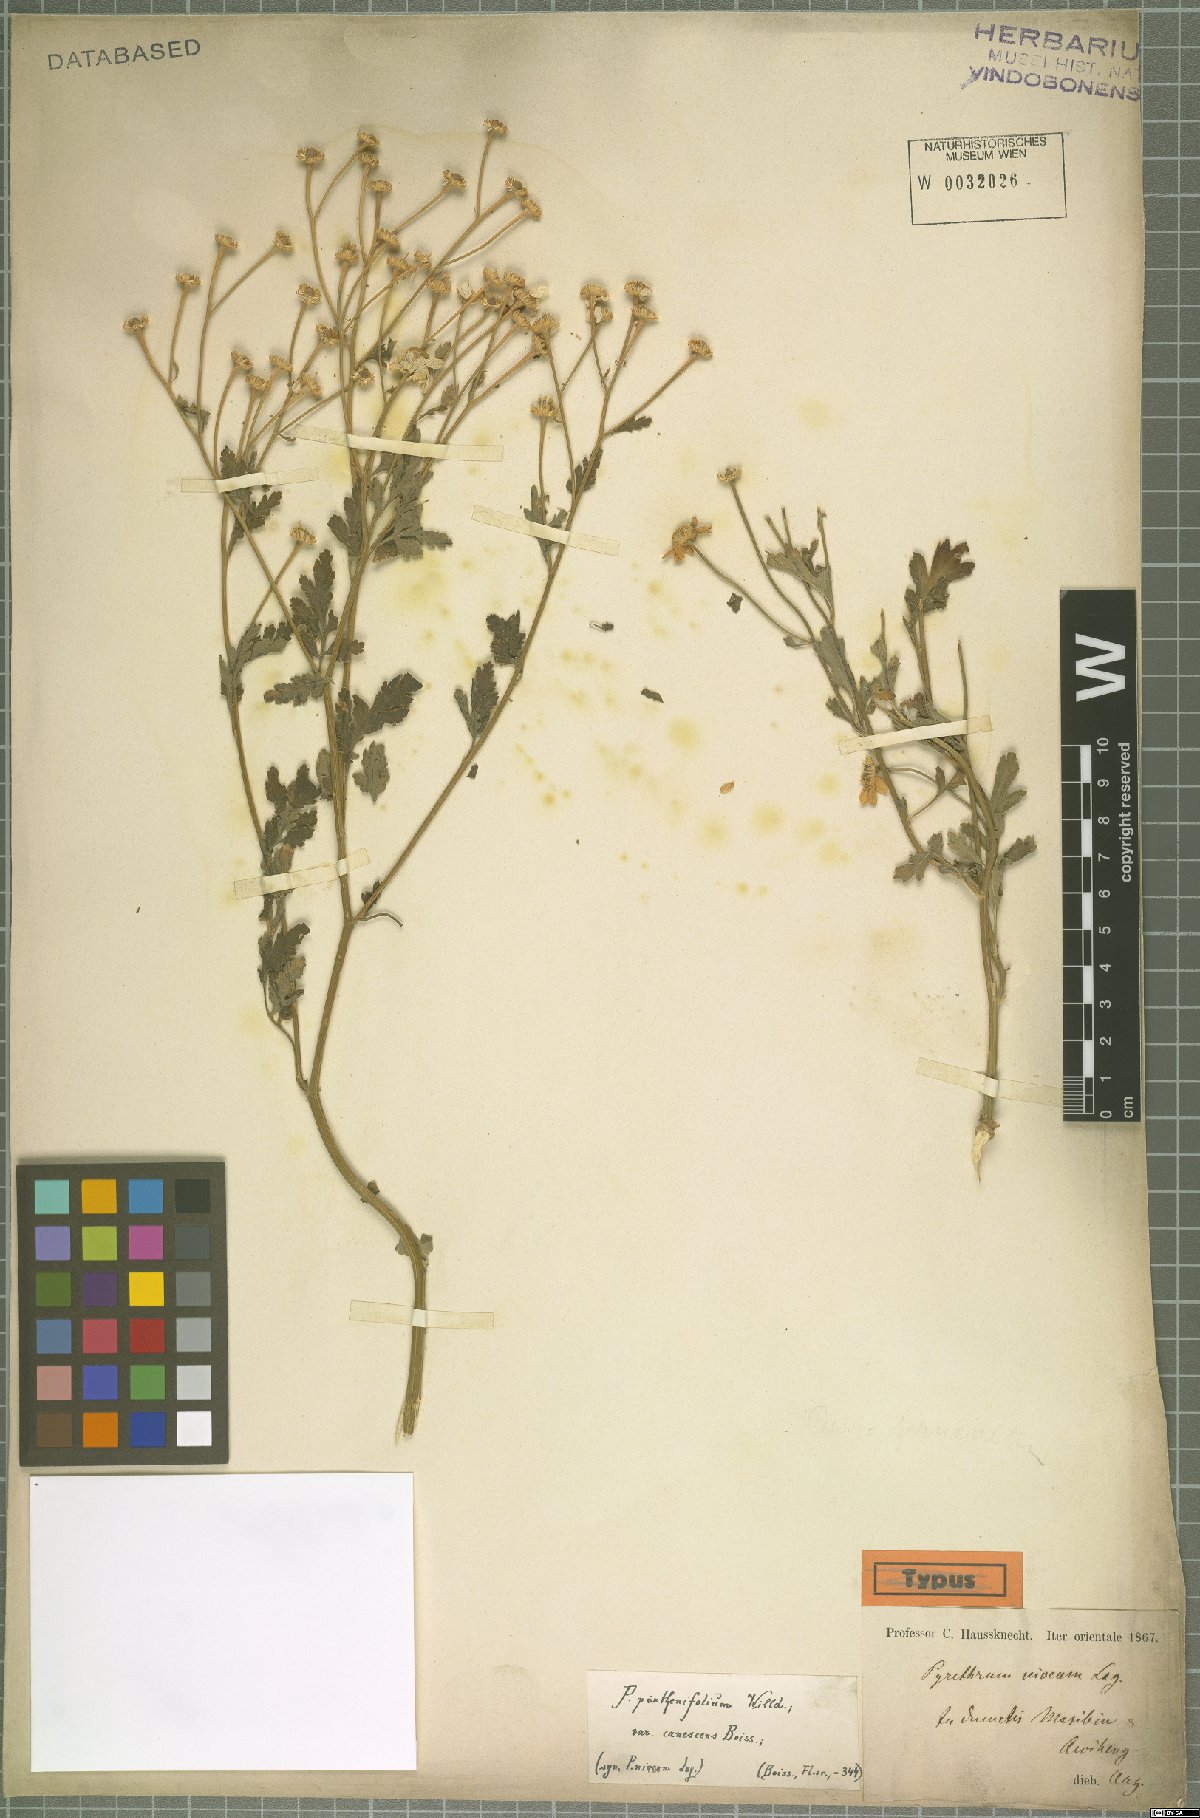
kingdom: Plantae
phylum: Tracheophyta
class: Magnoliopsida
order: Asterales
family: Asteraceae
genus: Tanacetum
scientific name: Tanacetum parthenium
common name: Feverfew
